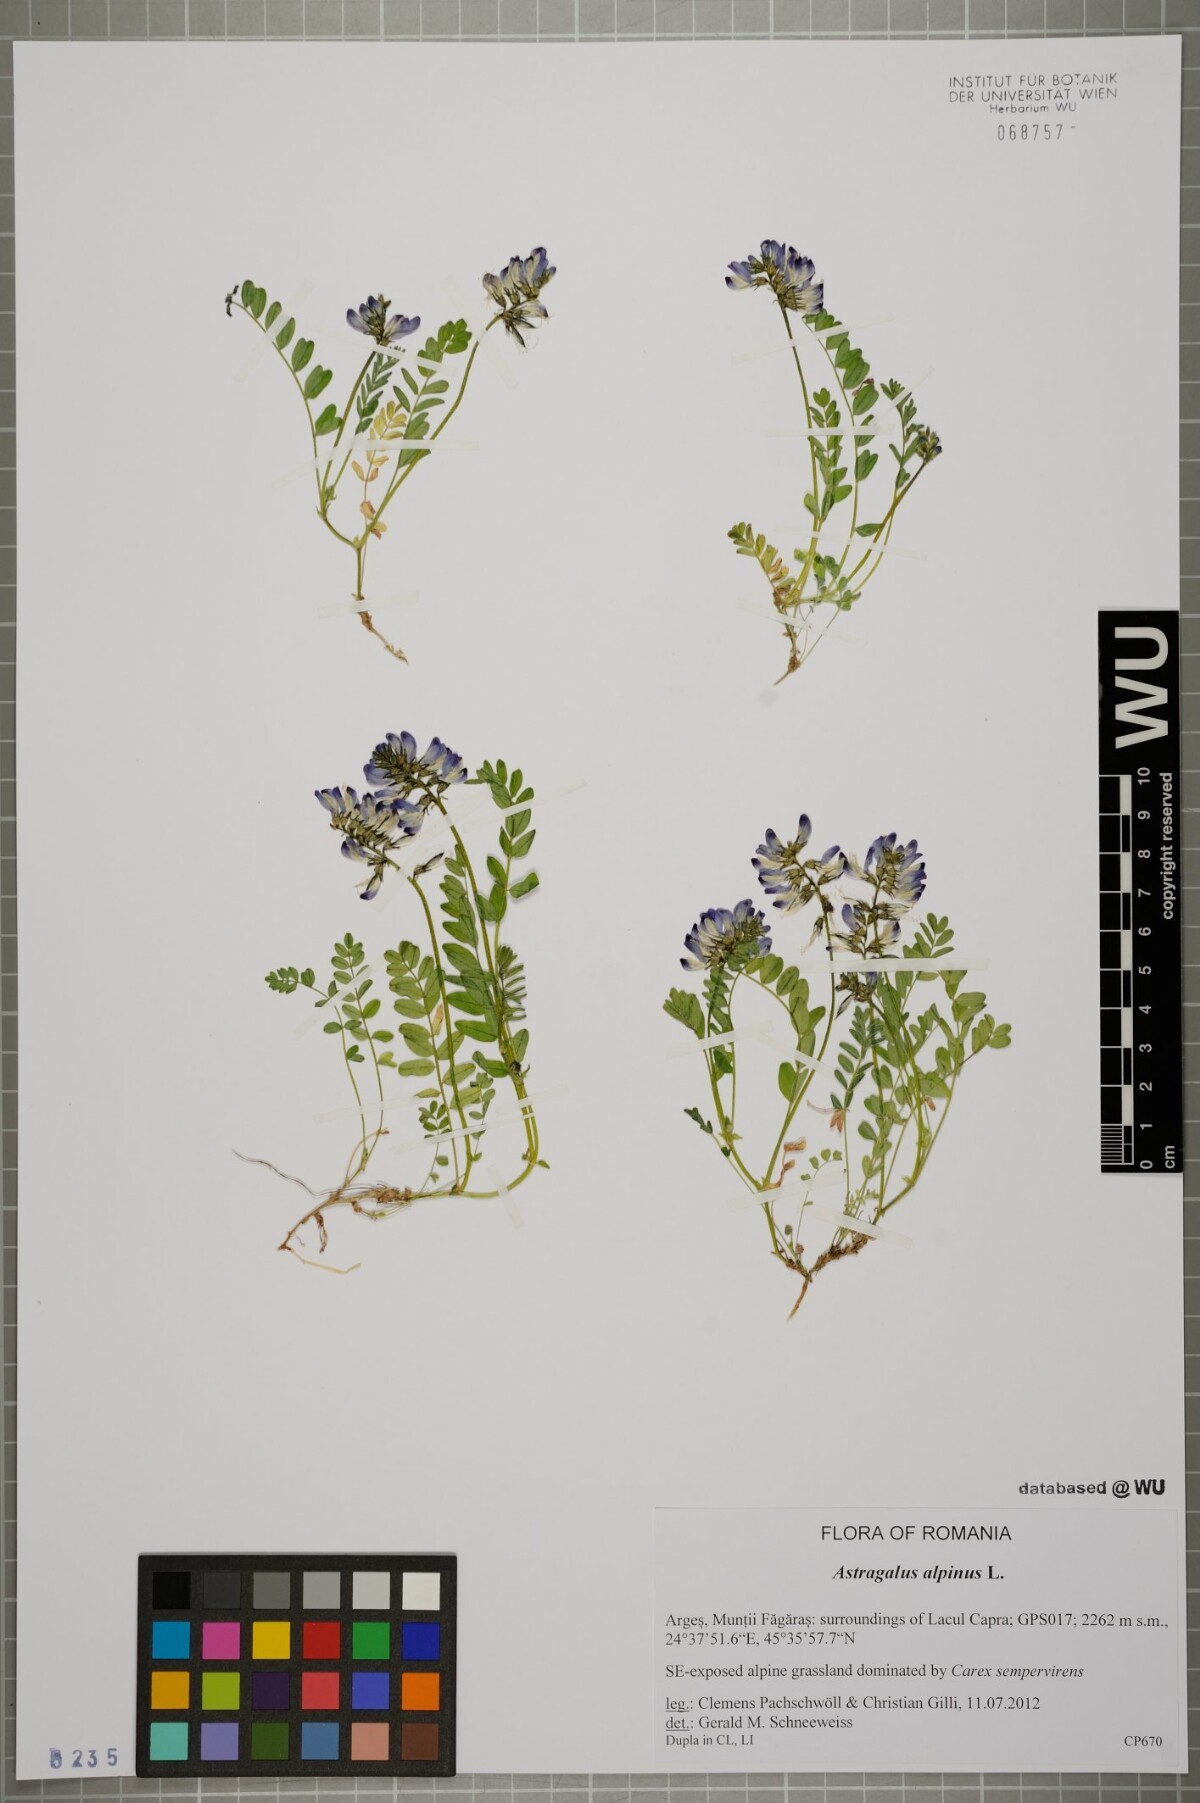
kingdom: Plantae
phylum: Tracheophyta
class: Magnoliopsida
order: Fabales
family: Fabaceae
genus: Astragalus
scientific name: Astragalus alpinus
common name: Alpine milk-vetch
